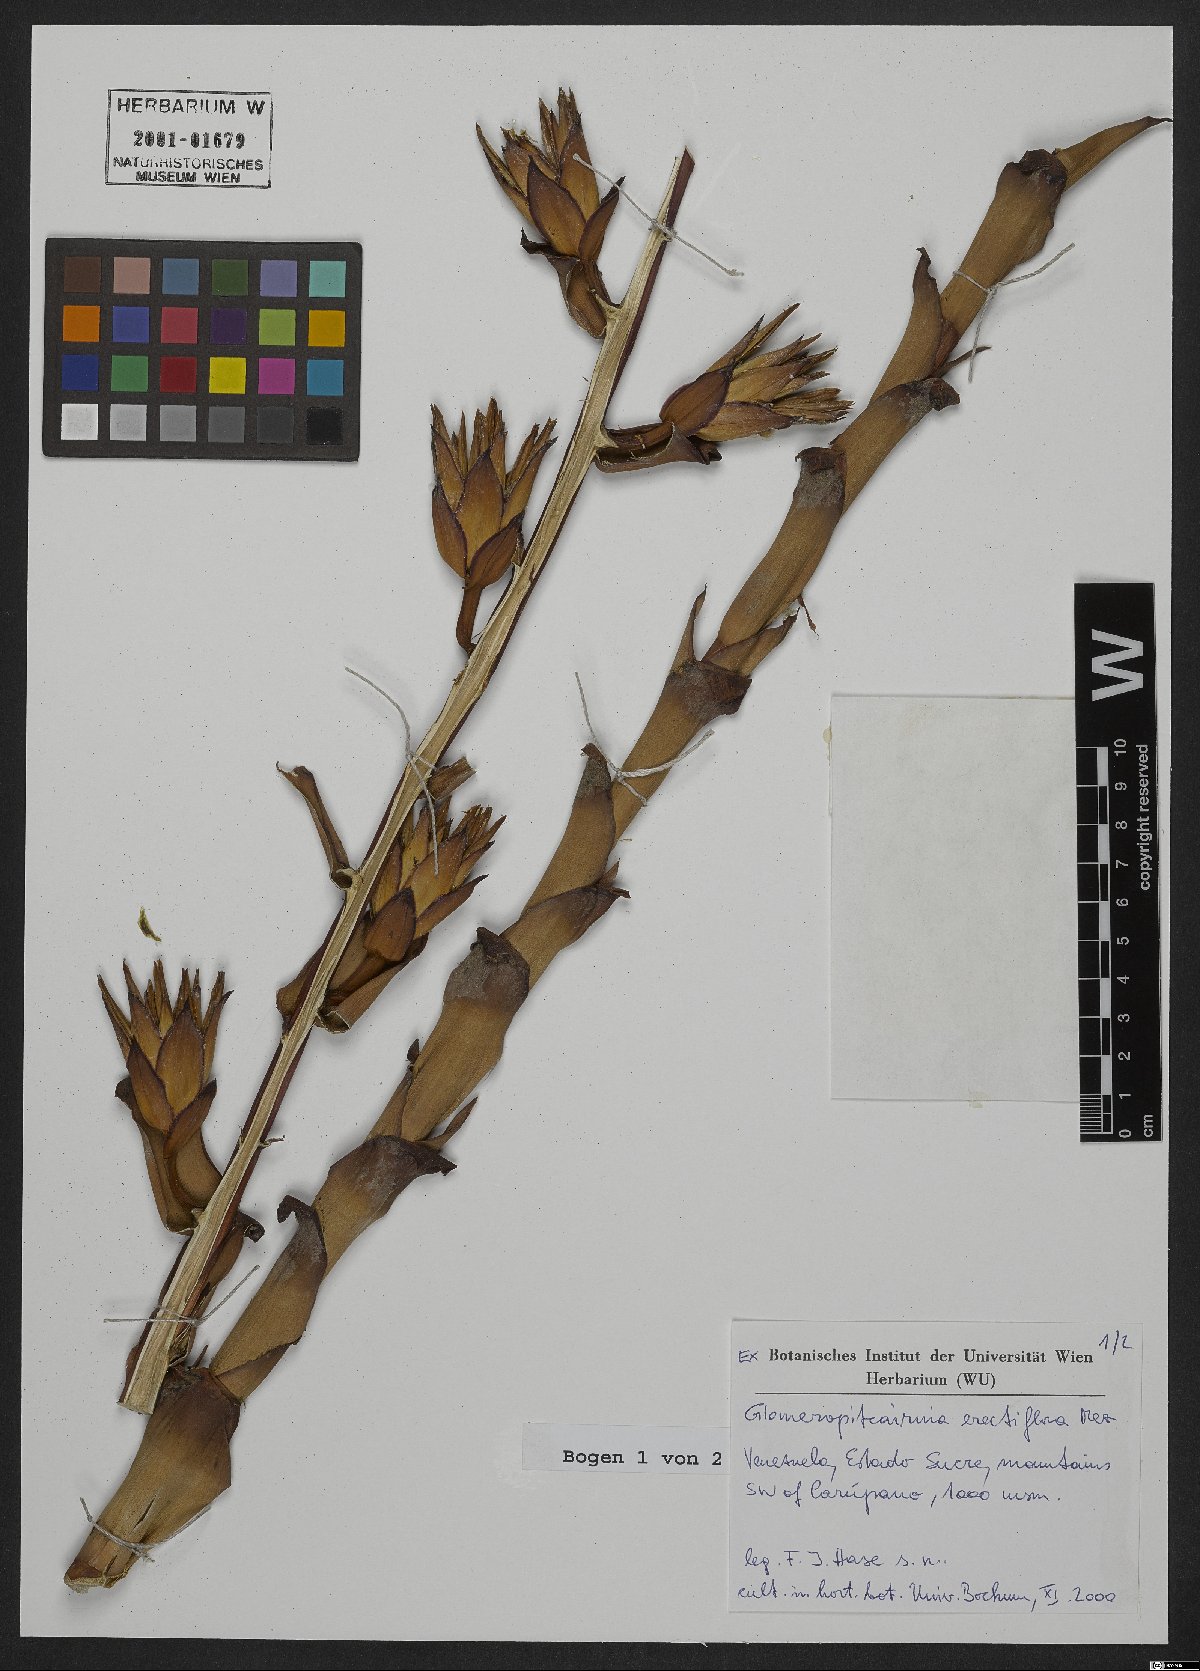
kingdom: Plantae
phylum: Tracheophyta
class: Liliopsida
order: Poales
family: Bromeliaceae
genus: Glomeropitcairnia
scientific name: Glomeropitcairnia erectiflora
